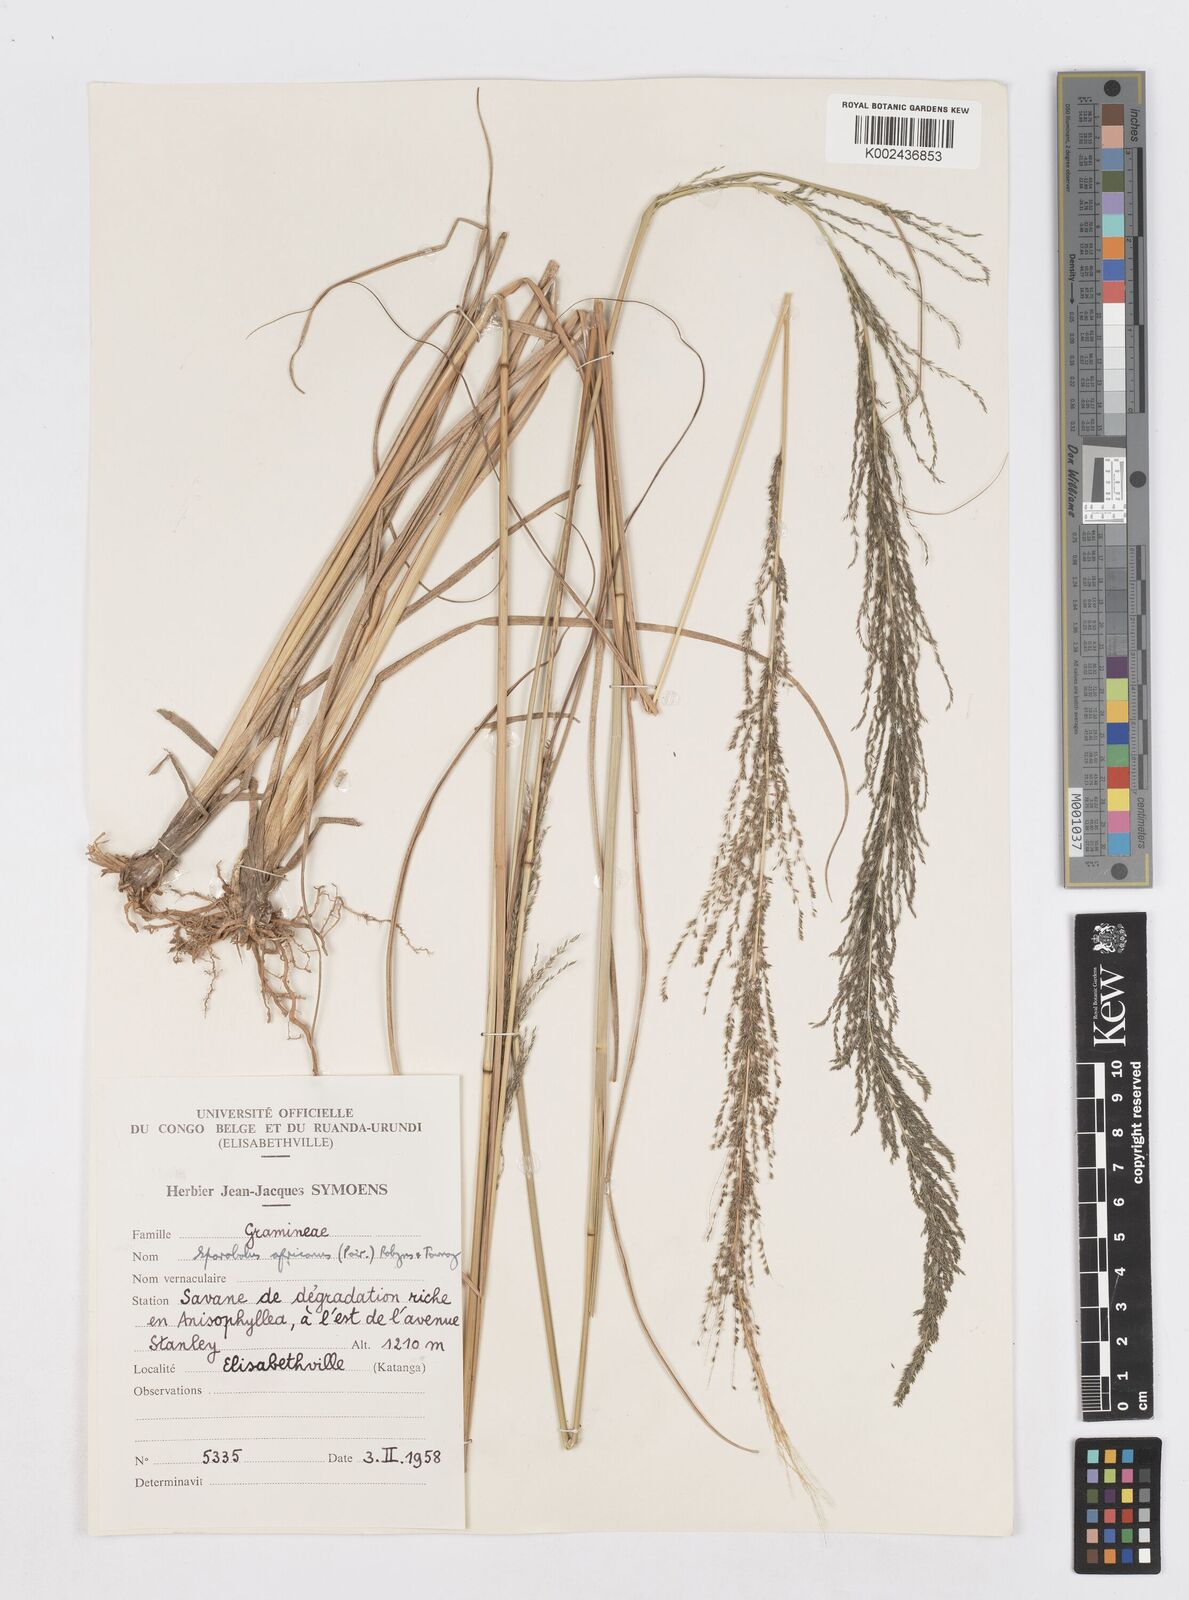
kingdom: Plantae
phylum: Tracheophyta
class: Liliopsida
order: Poales
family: Poaceae
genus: Sporobolus
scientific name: Sporobolus natalensis
